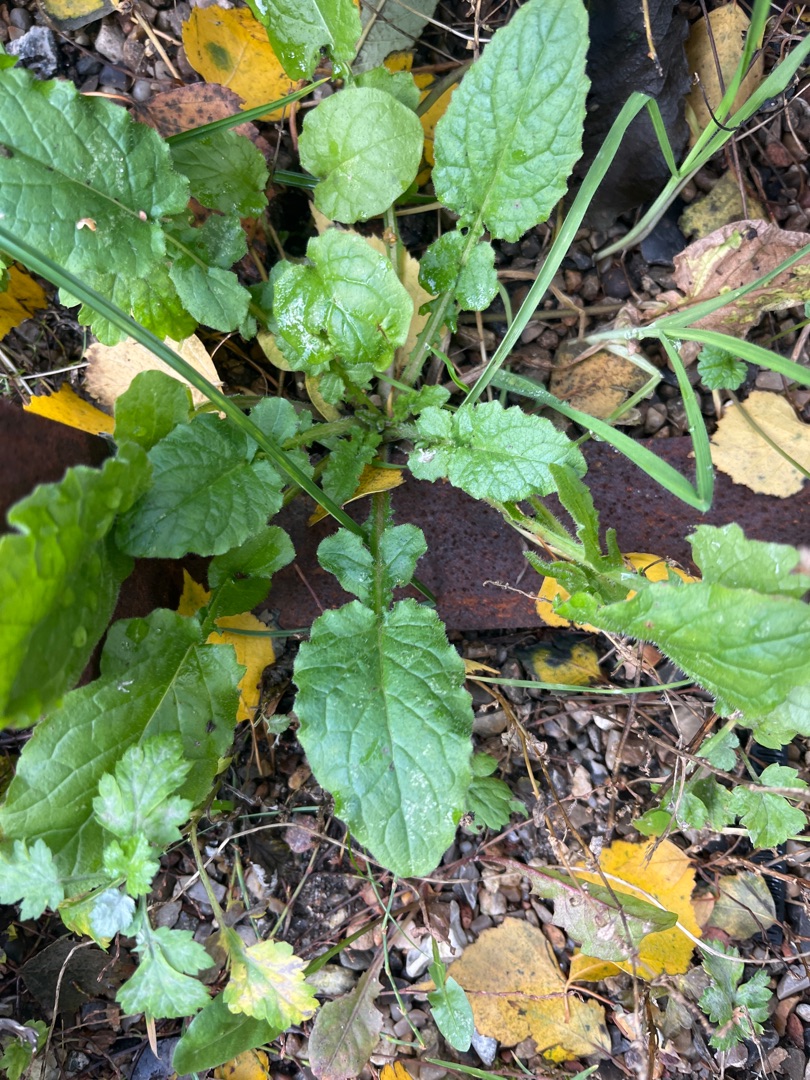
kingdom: Plantae
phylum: Tracheophyta
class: Magnoliopsida
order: Asterales
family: Asteraceae
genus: Lapsana
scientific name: Lapsana communis
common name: Haremad
